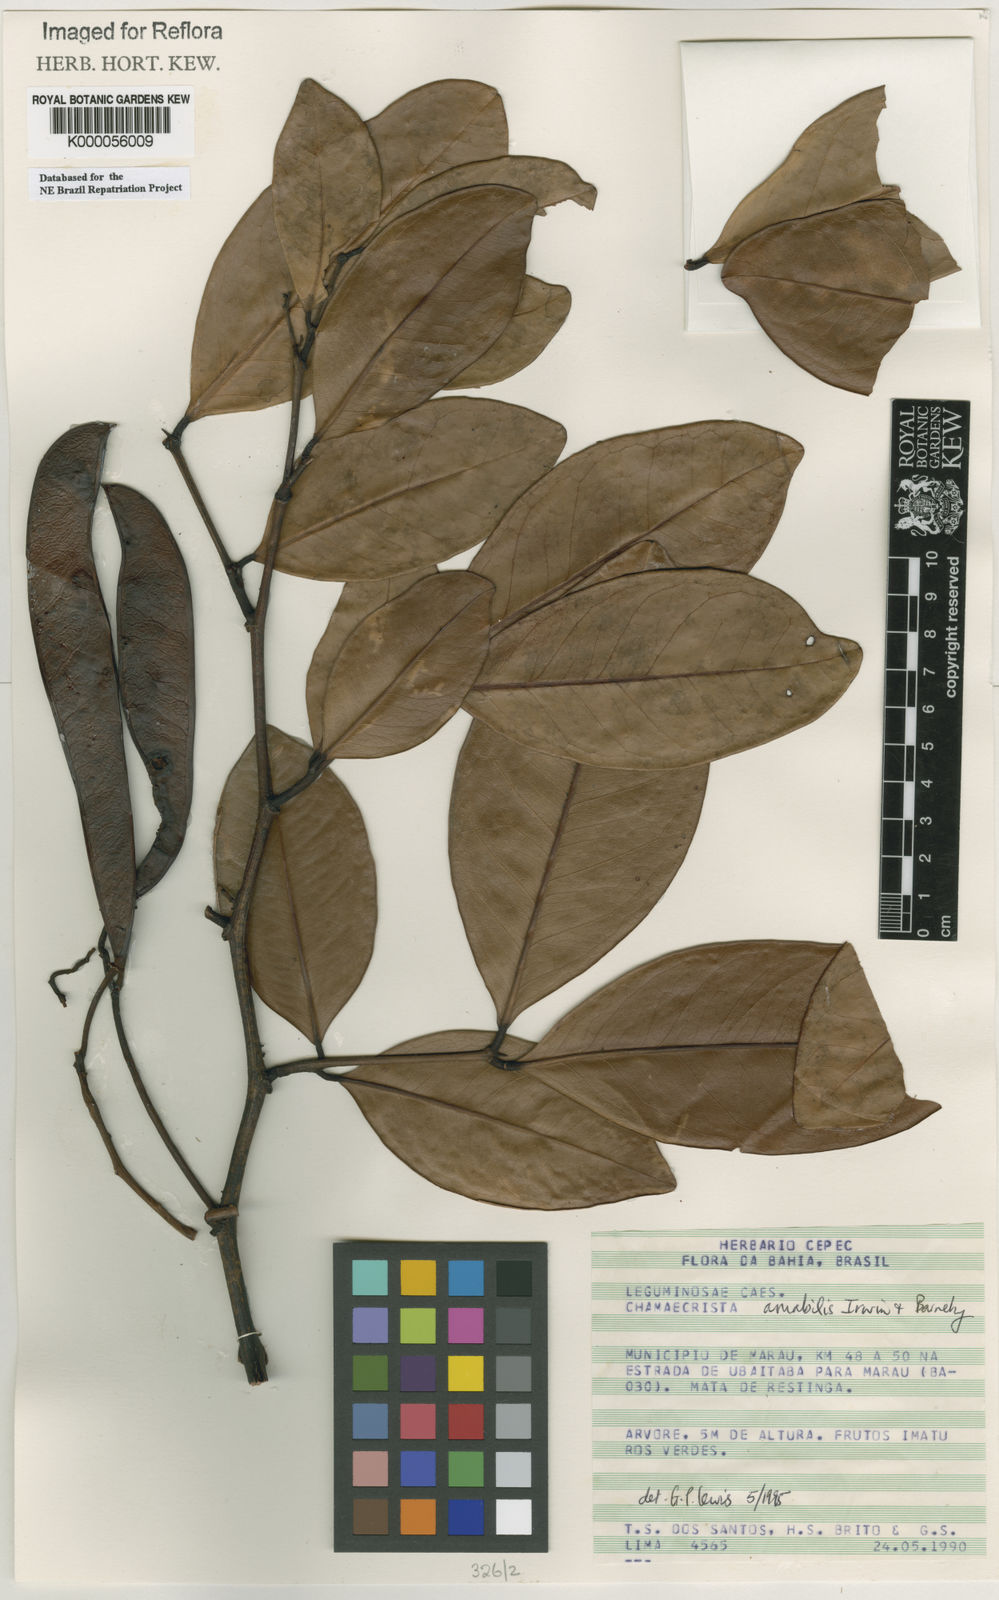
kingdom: Plantae
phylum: Tracheophyta
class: Magnoliopsida
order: Fabales
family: Fabaceae
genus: Chamaecrista
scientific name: Chamaecrista amabilis
